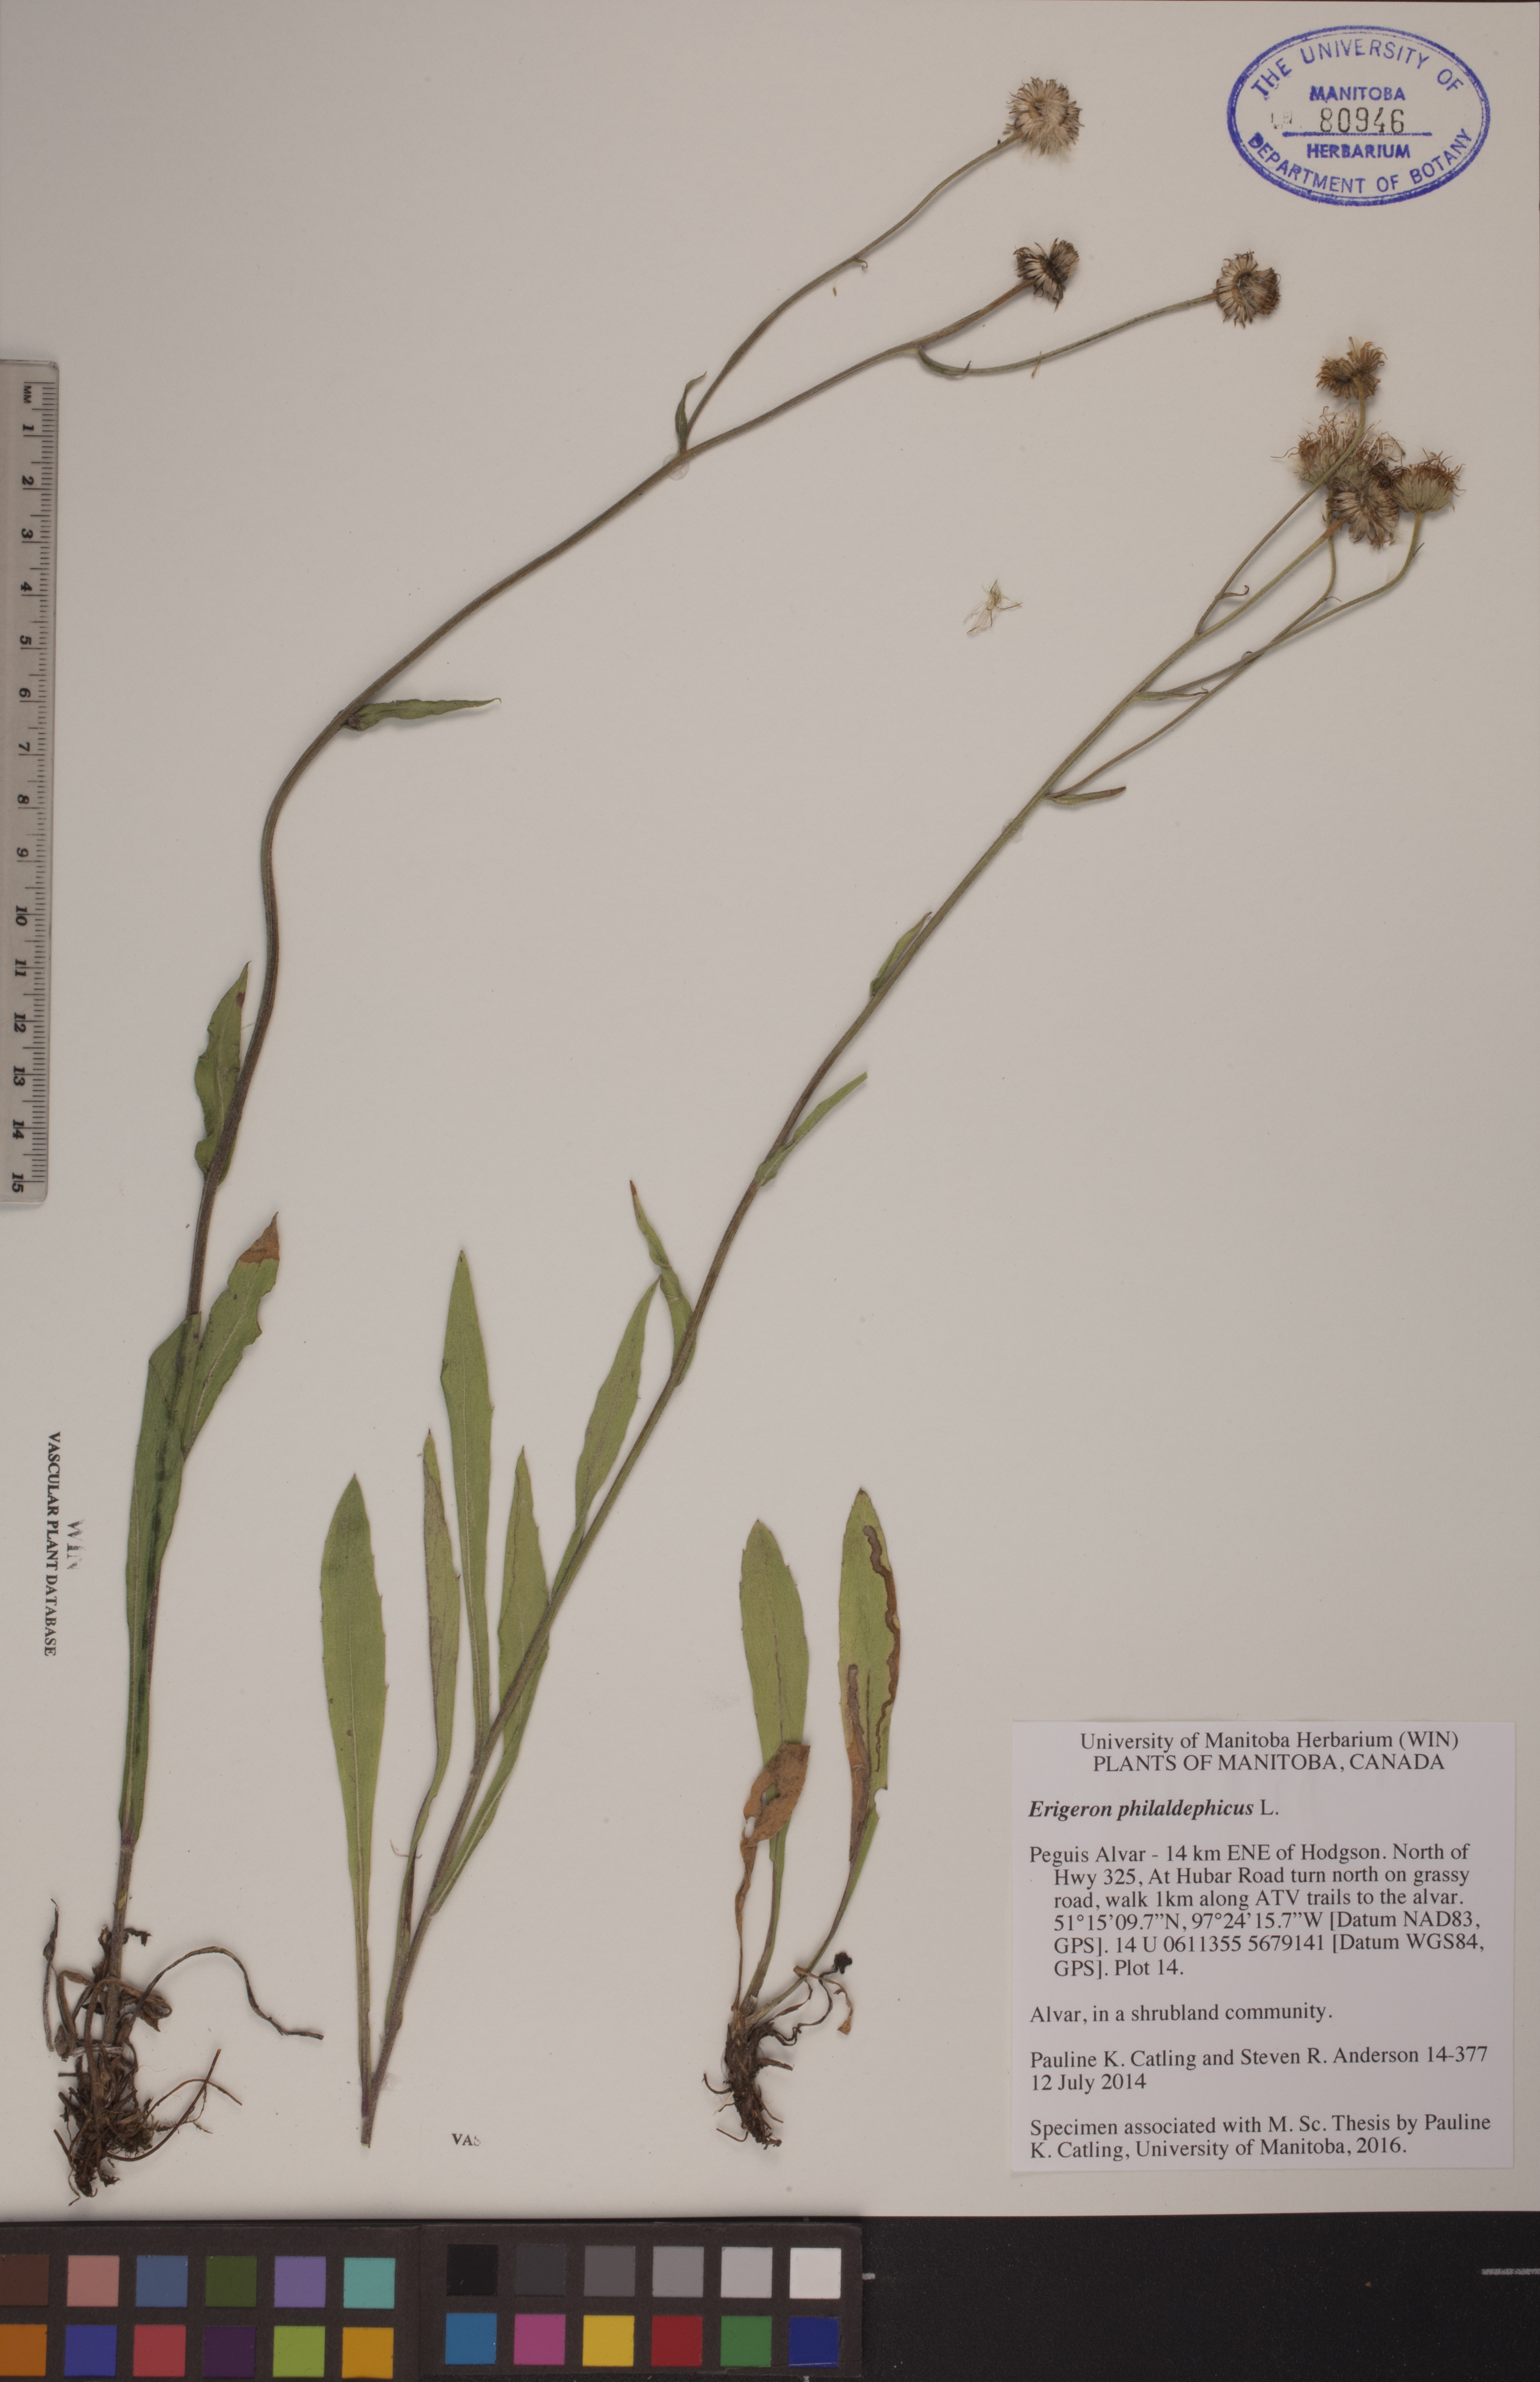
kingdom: Plantae
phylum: Tracheophyta
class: Magnoliopsida
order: Asterales
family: Asteraceae
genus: Erigeron
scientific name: Erigeron philadelphicus
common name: Robin's-plantain
